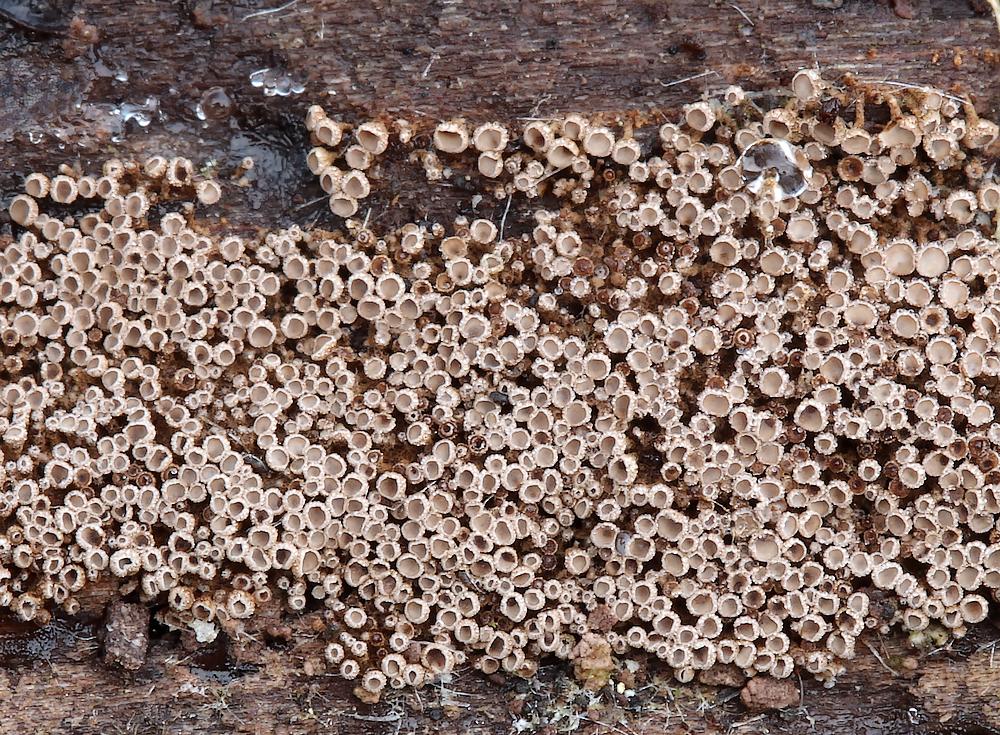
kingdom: Fungi
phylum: Basidiomycota
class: Agaricomycetes
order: Agaricales
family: Niaceae
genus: Merismodes
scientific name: Merismodes anomala
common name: almindelig læderskål
